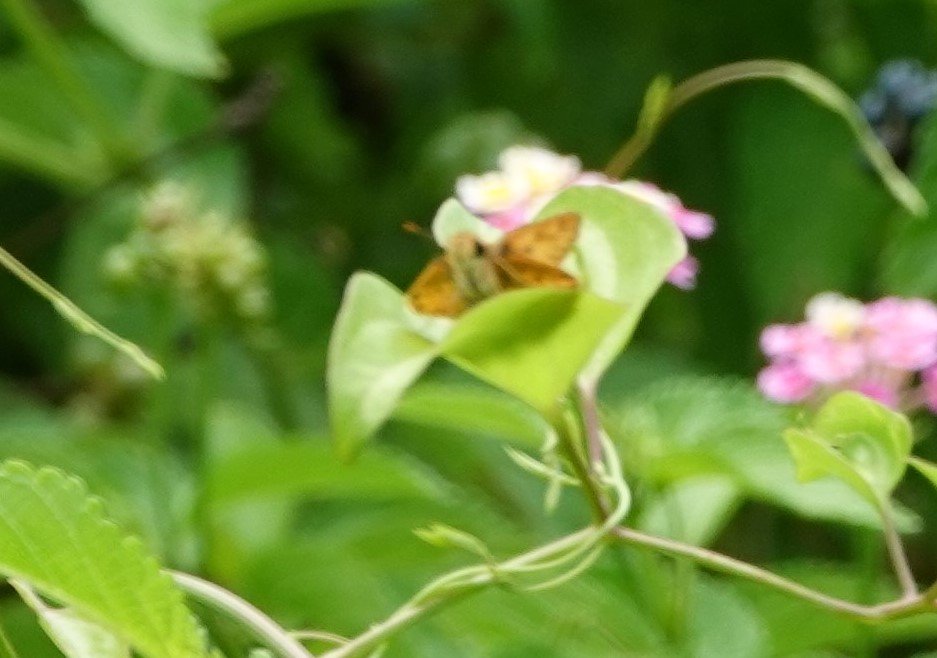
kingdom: Animalia
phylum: Arthropoda
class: Insecta
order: Lepidoptera
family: Hesperiidae
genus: Hylephila
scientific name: Hylephila phyleus
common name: Fiery Skipper
